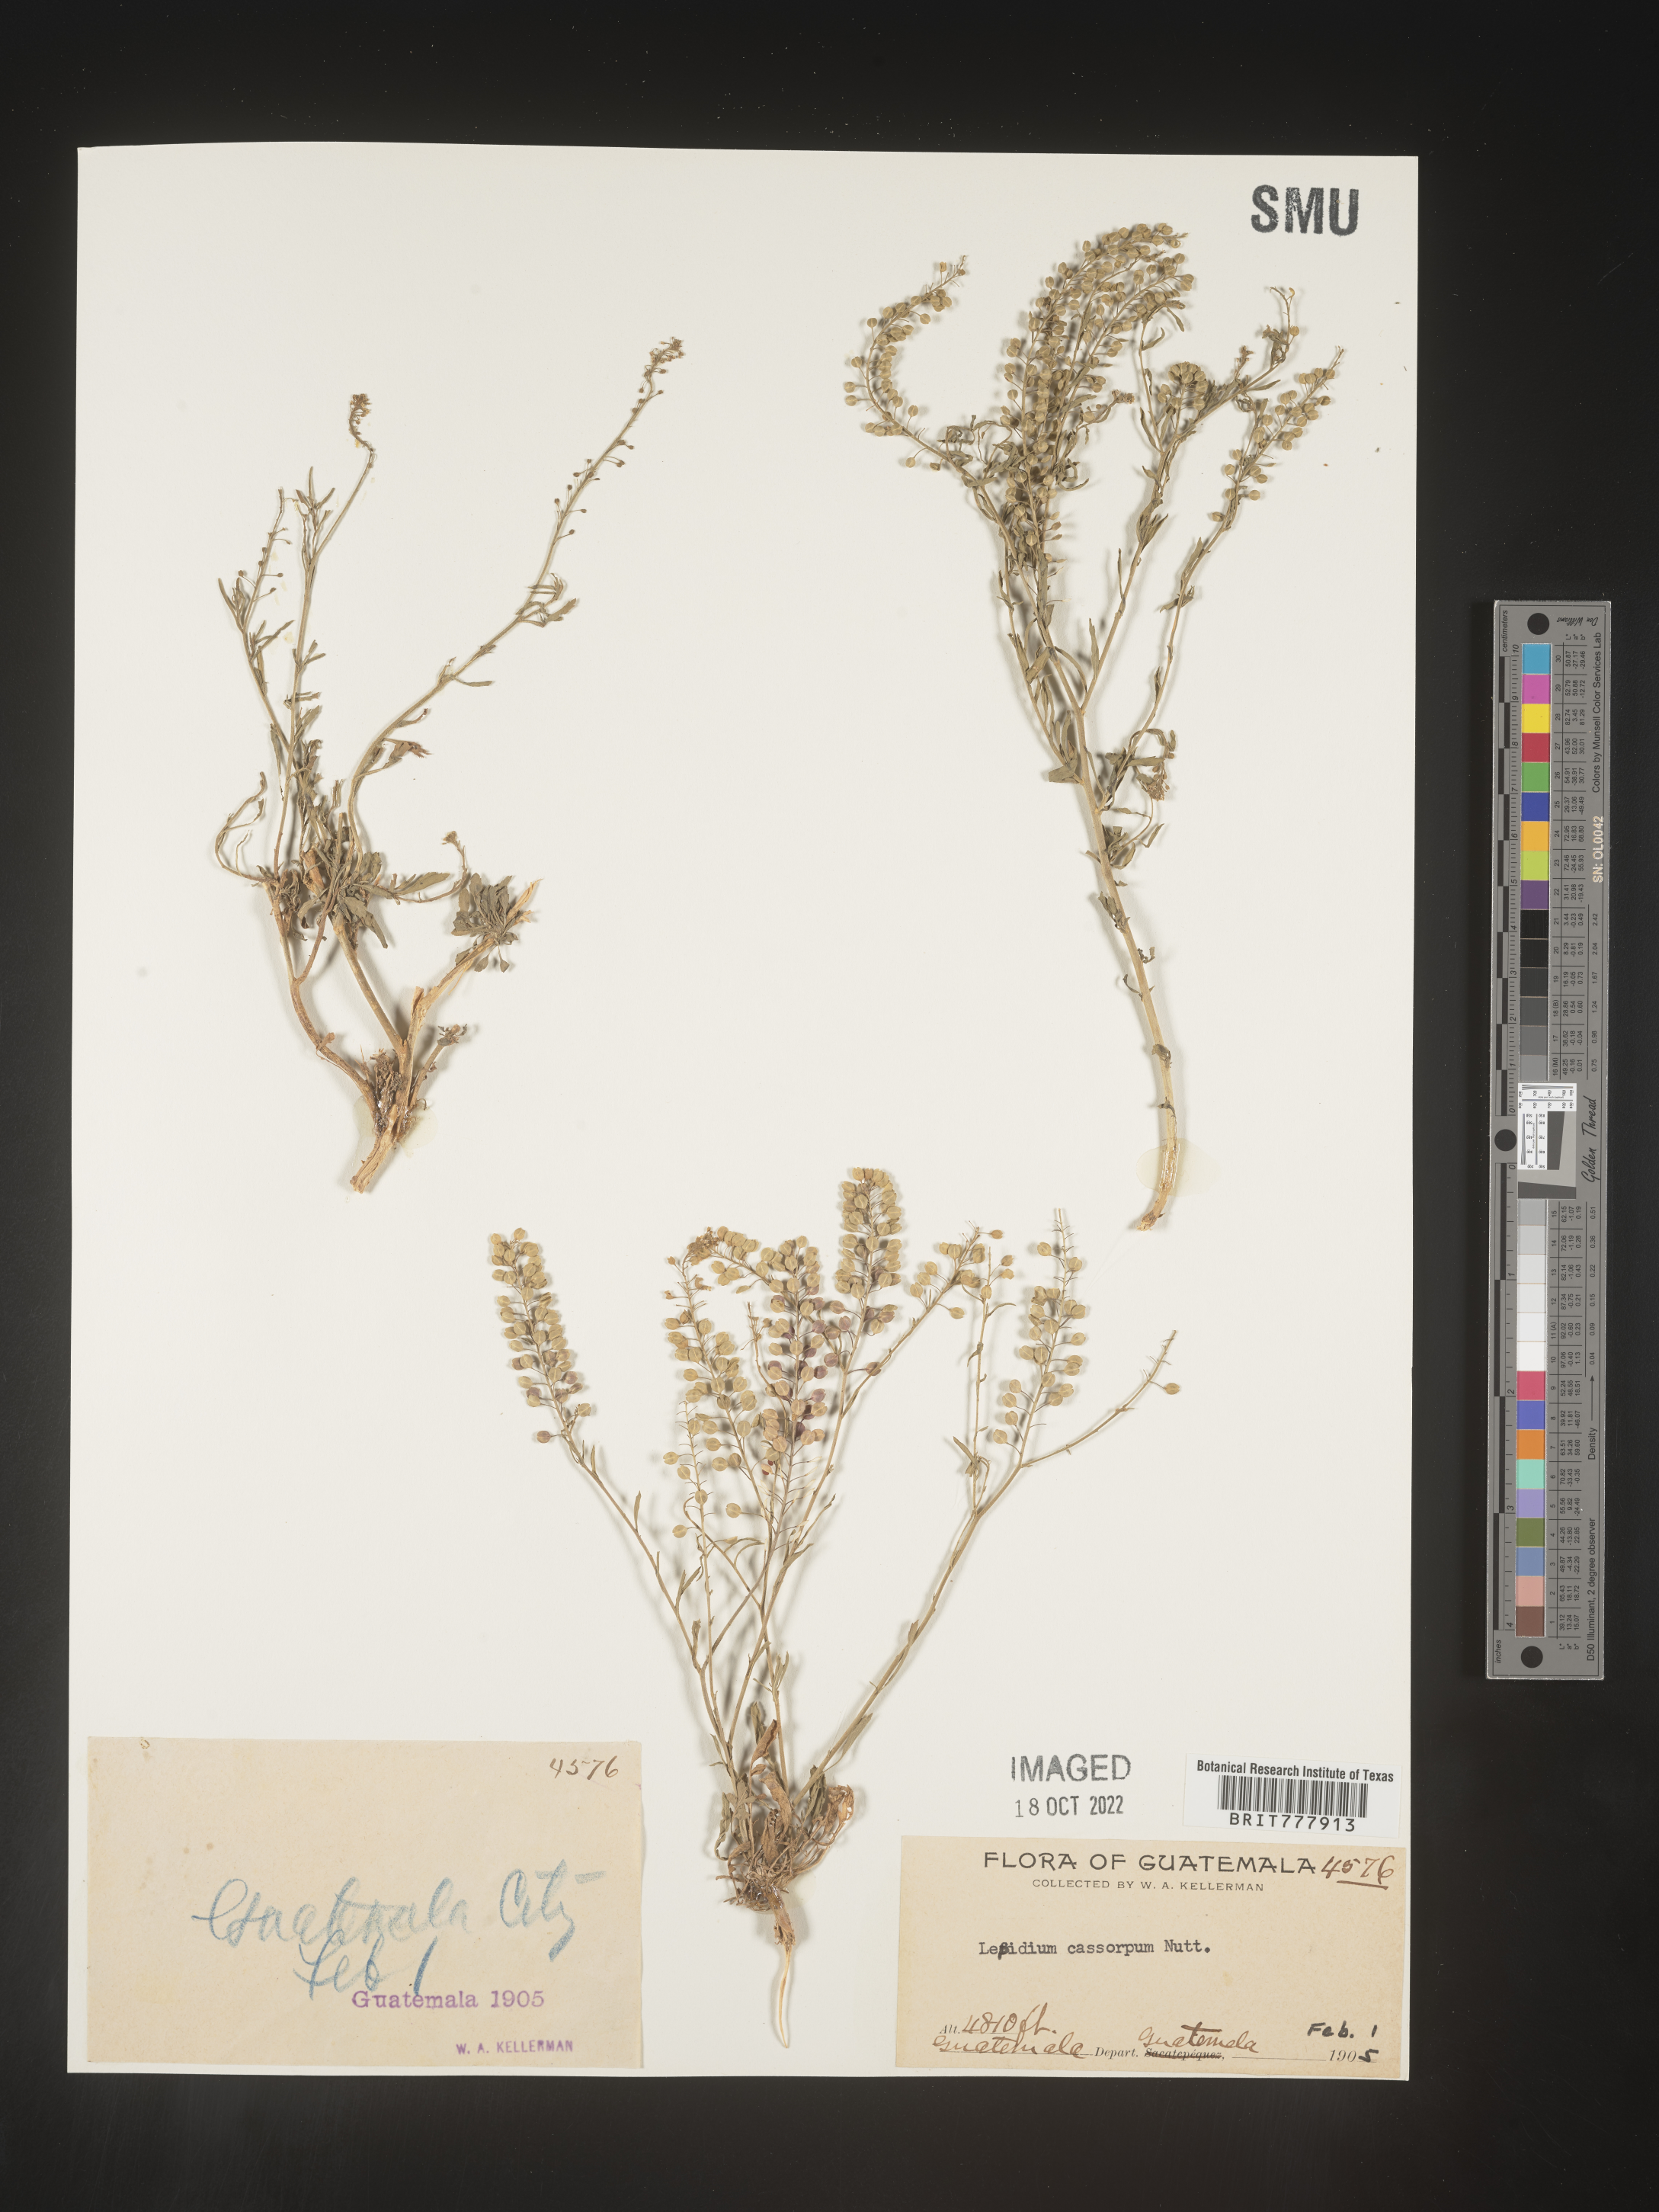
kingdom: Plantae
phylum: Tracheophyta
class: Magnoliopsida
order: Brassicales
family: Brassicaceae
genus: Lepidium
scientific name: Lepidium
